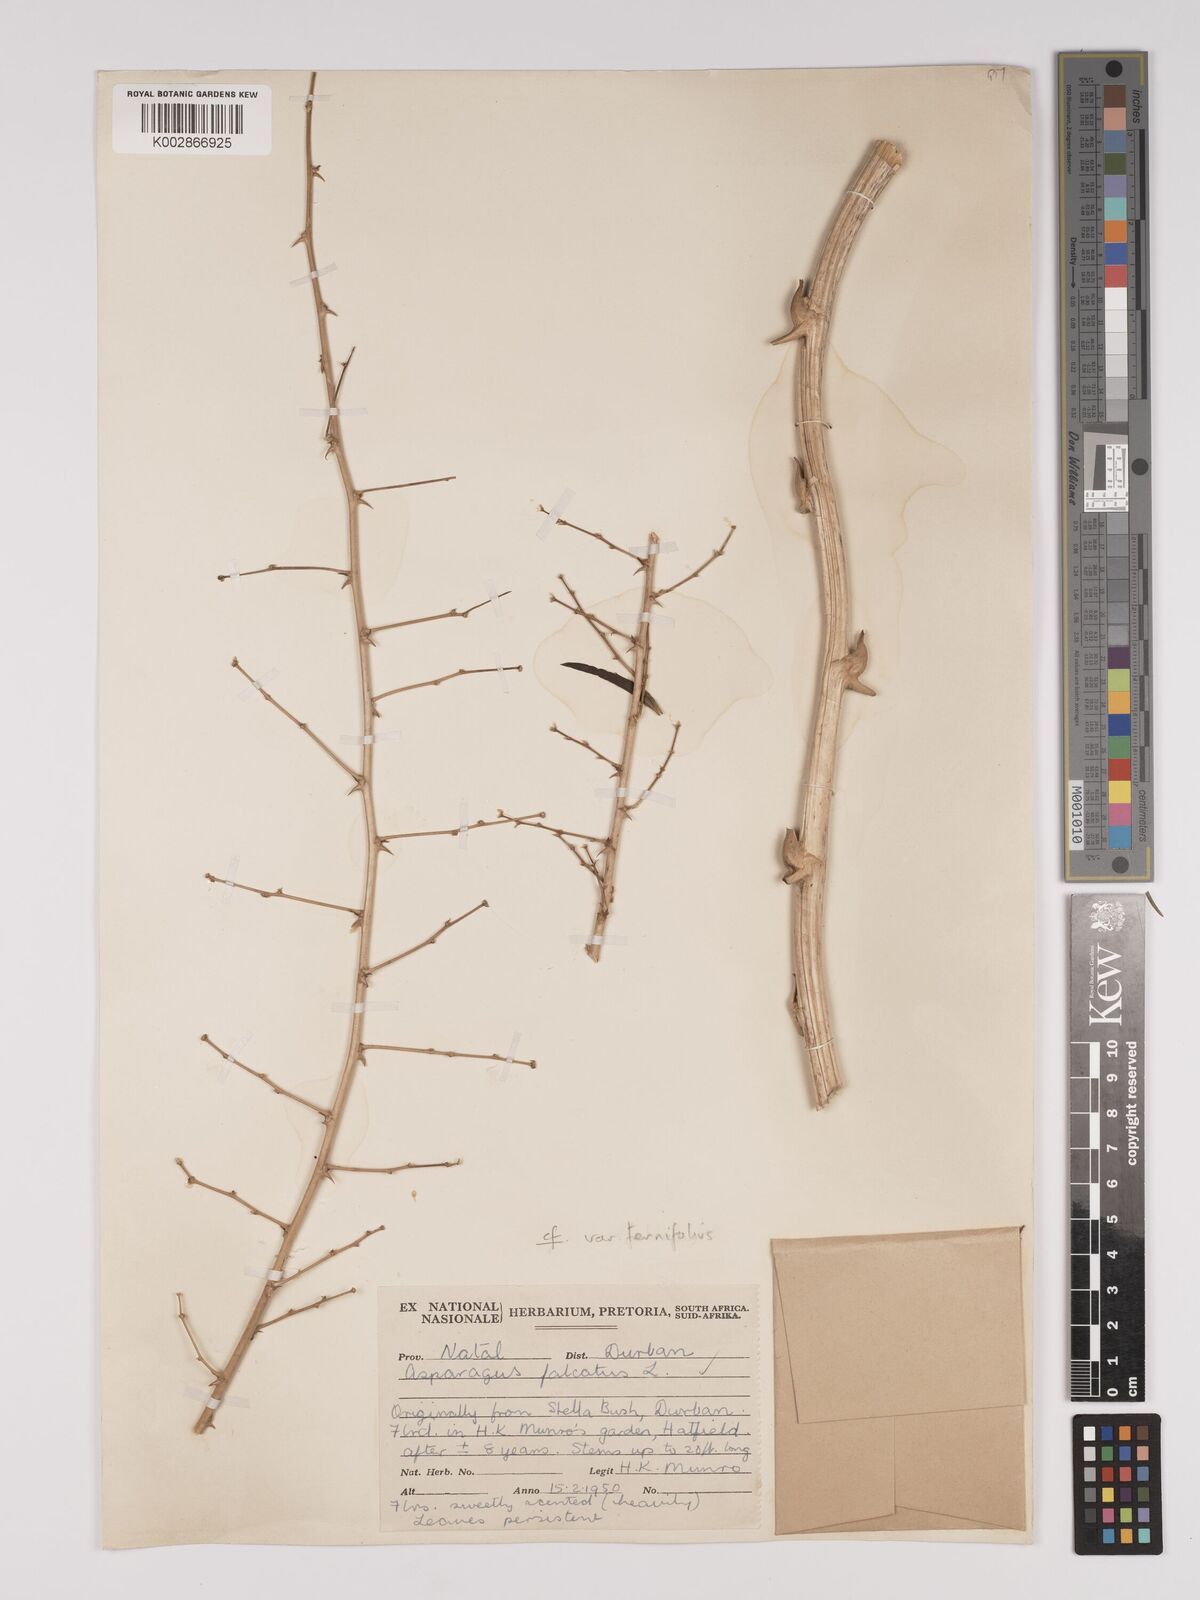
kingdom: Plantae
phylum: Tracheophyta
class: Liliopsida
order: Asparagales
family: Asparagaceae
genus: Asparagus
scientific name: Asparagus falcatus
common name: Asparagus
